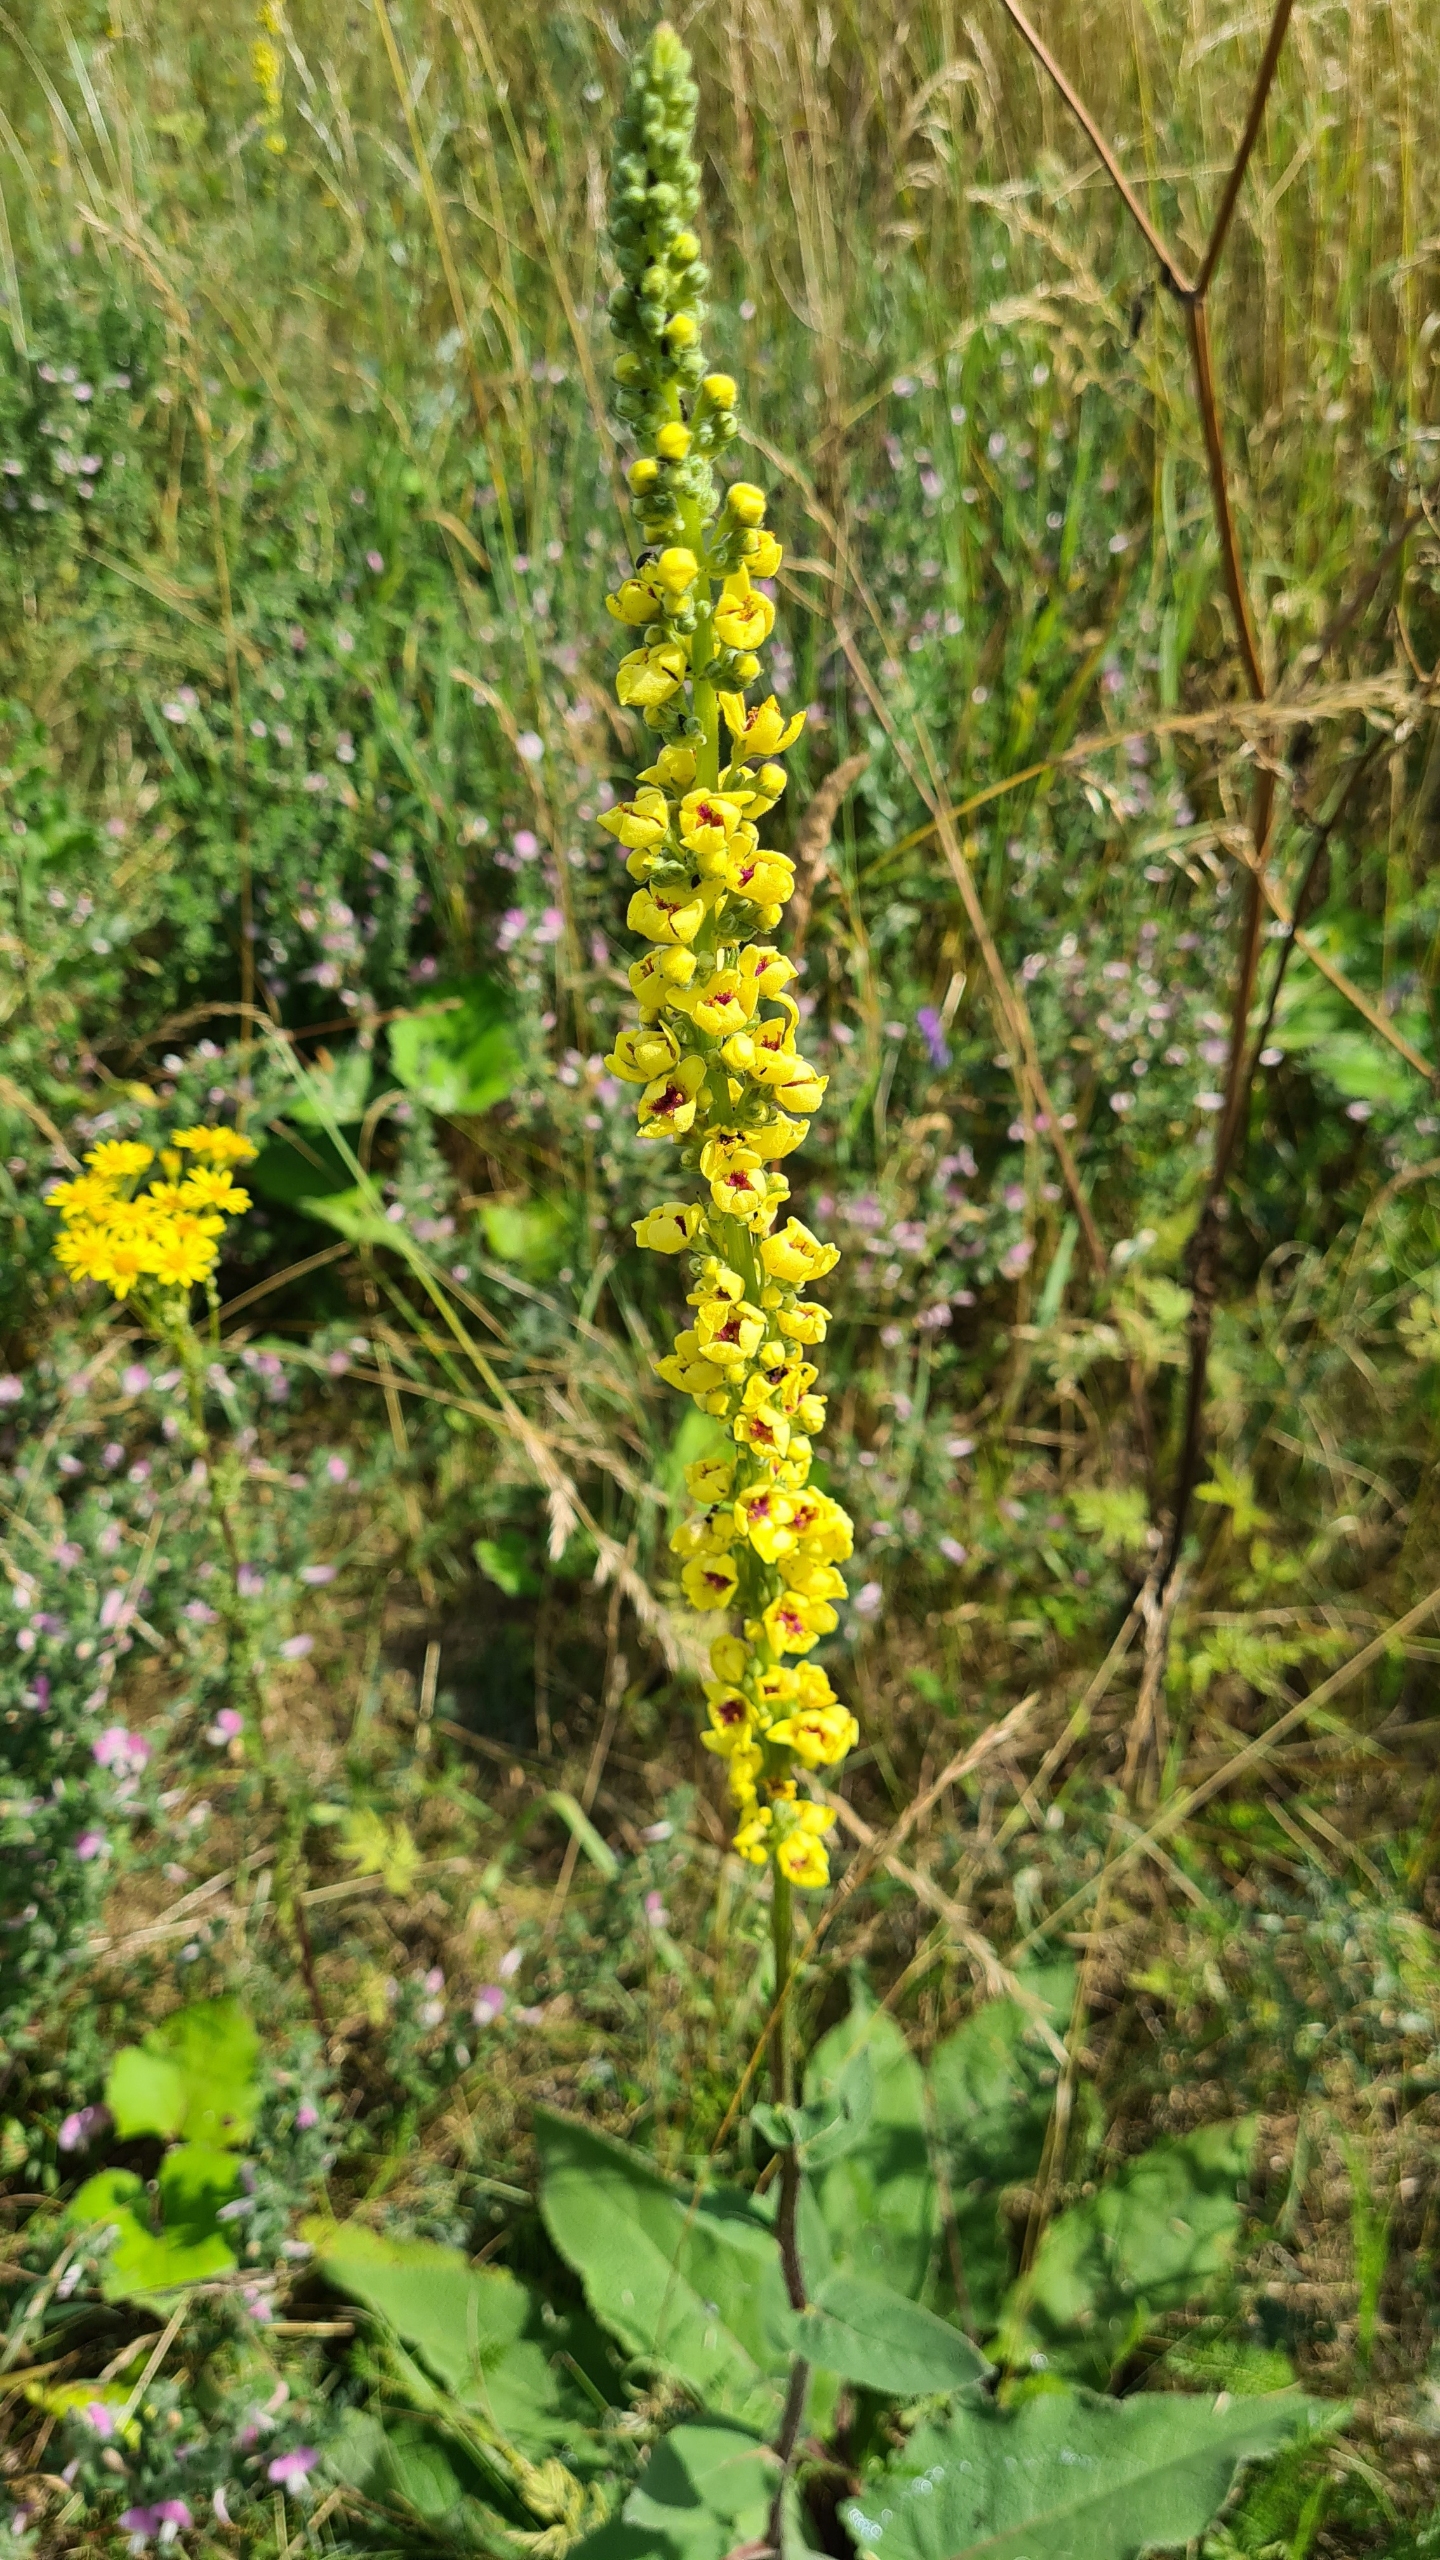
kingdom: Plantae
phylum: Tracheophyta
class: Magnoliopsida
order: Lamiales
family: Scrophulariaceae
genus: Verbascum
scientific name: Verbascum nigrum
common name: Mørk kongelys
